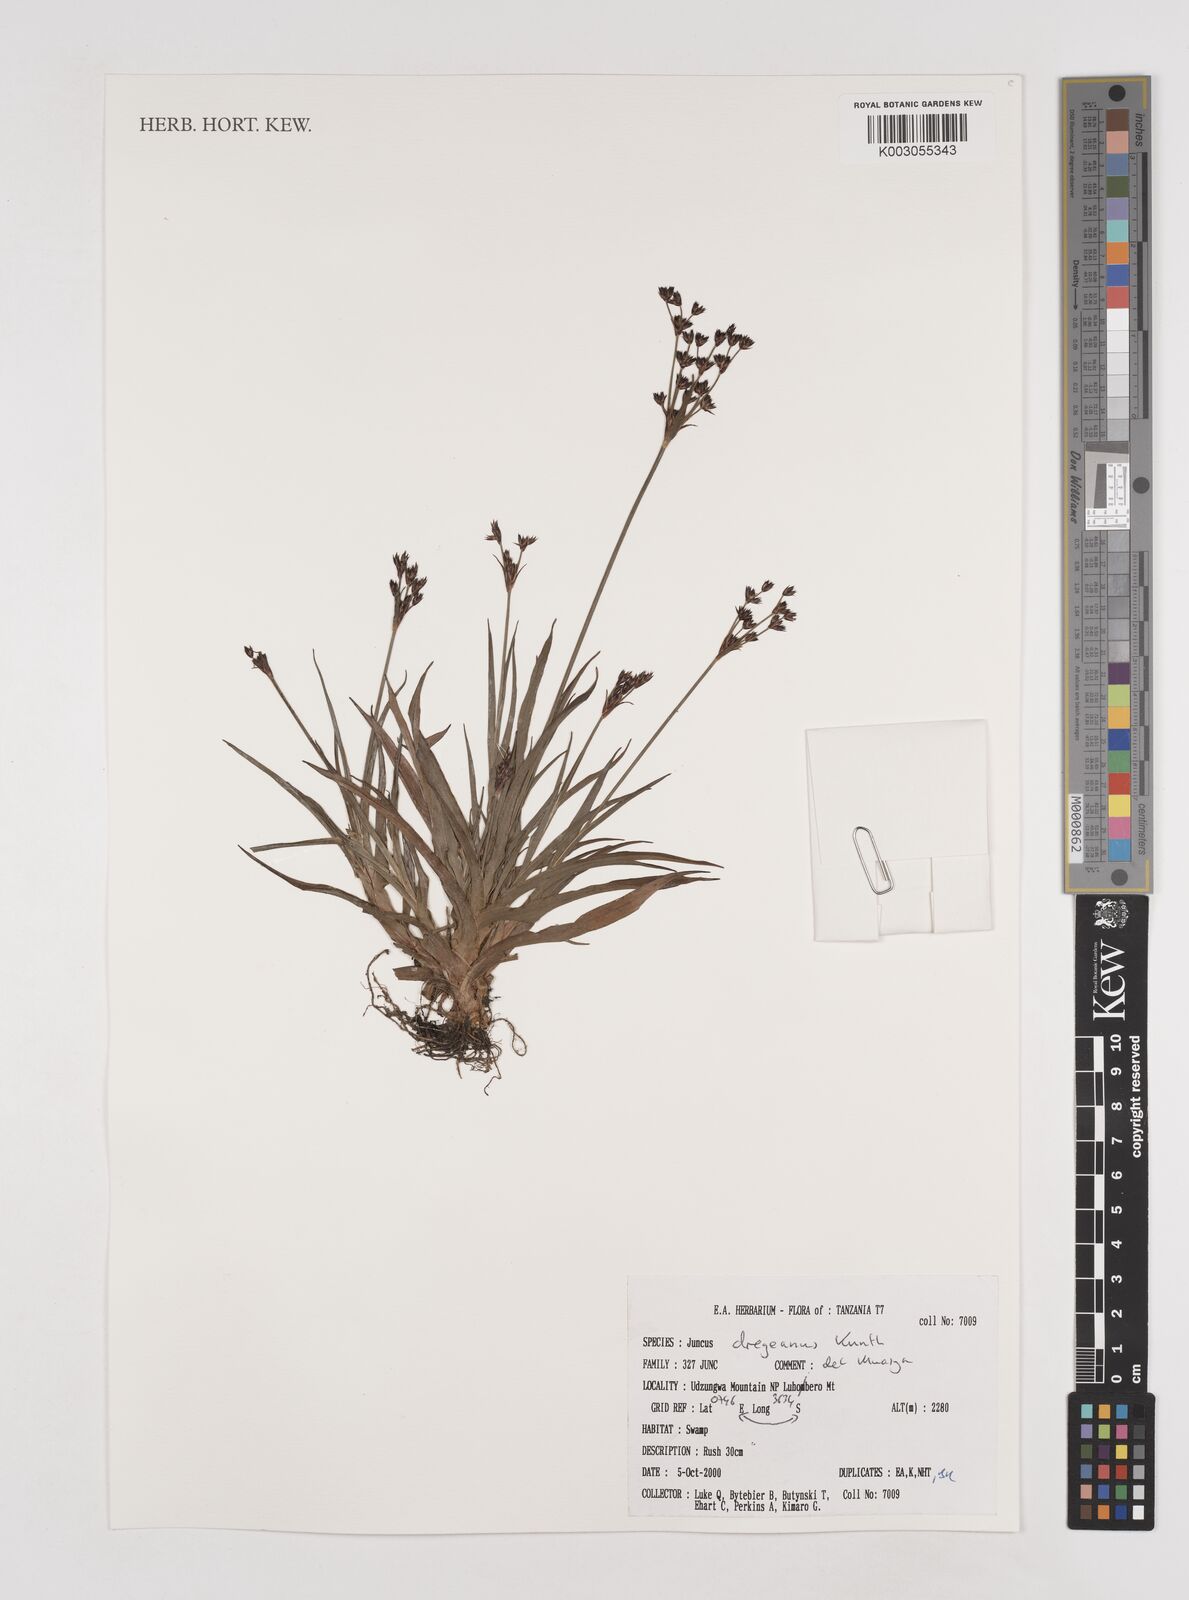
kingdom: Plantae
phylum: Tracheophyta
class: Liliopsida
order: Poales
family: Juncaceae
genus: Juncus
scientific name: Juncus dregeanus
